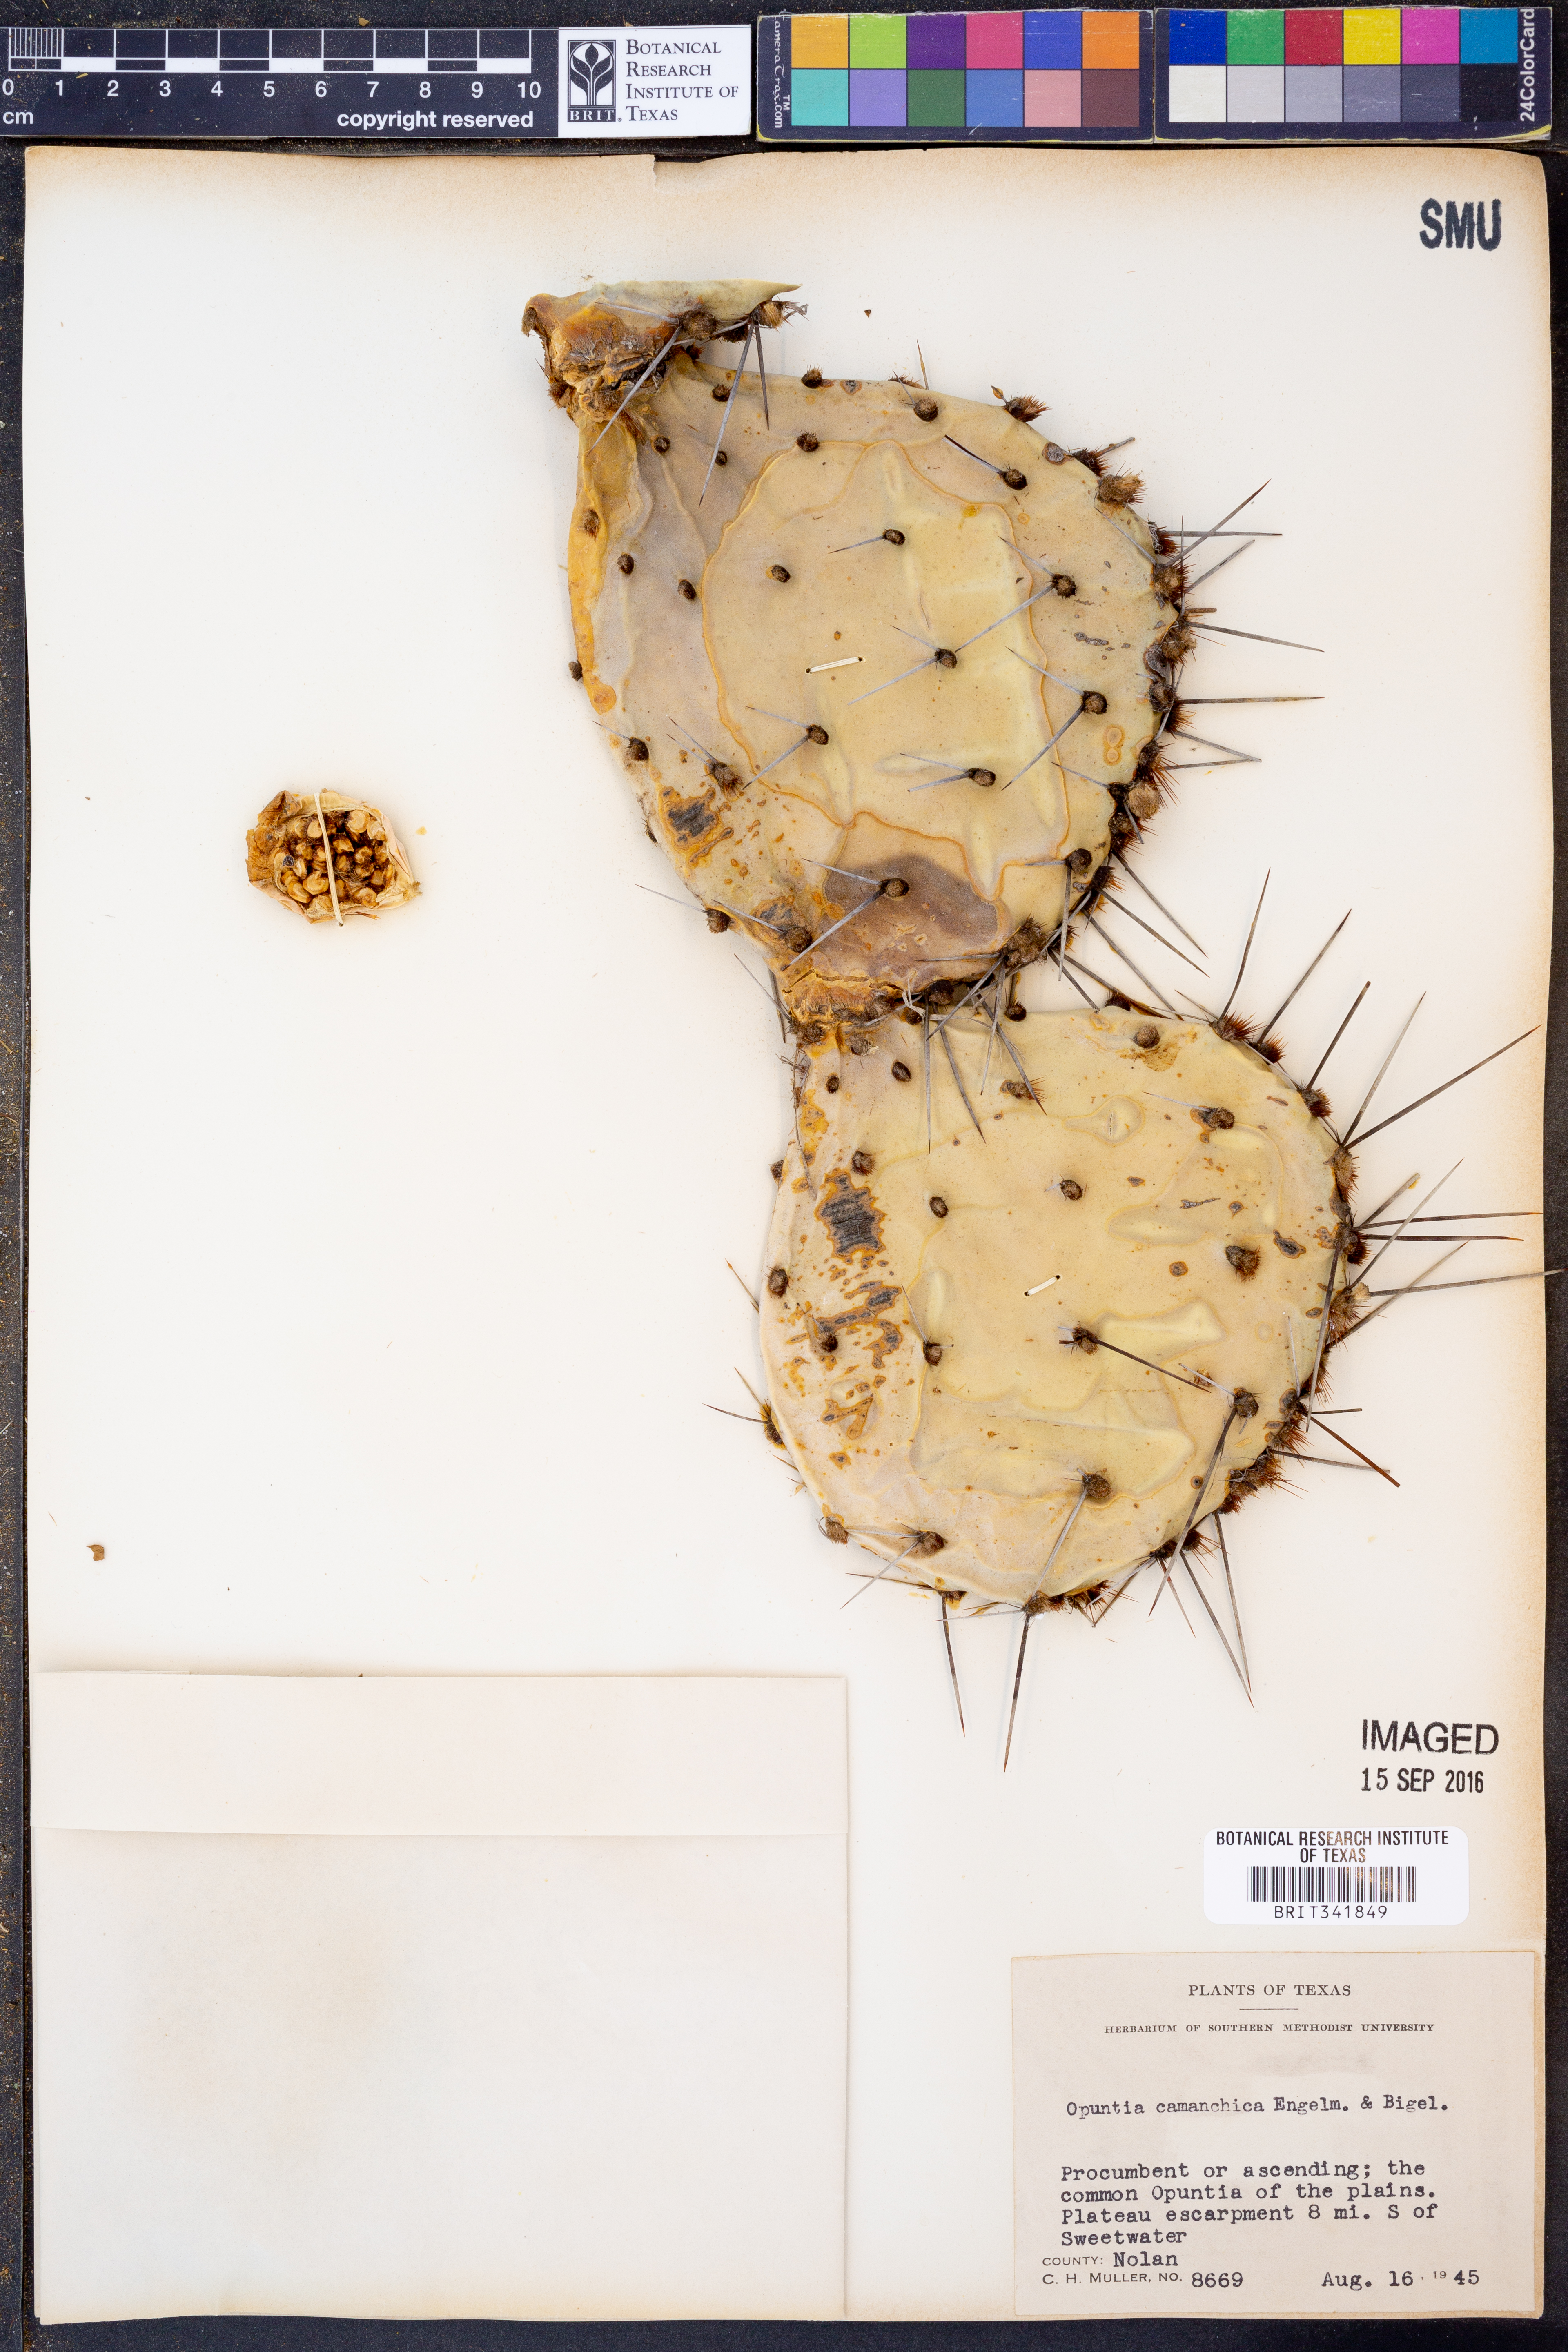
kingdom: Plantae
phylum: Tracheophyta
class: Magnoliopsida
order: Caryophyllales
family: Cactaceae
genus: Opuntia
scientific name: Opuntia phaeacantha
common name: New mexico prickly-pear
